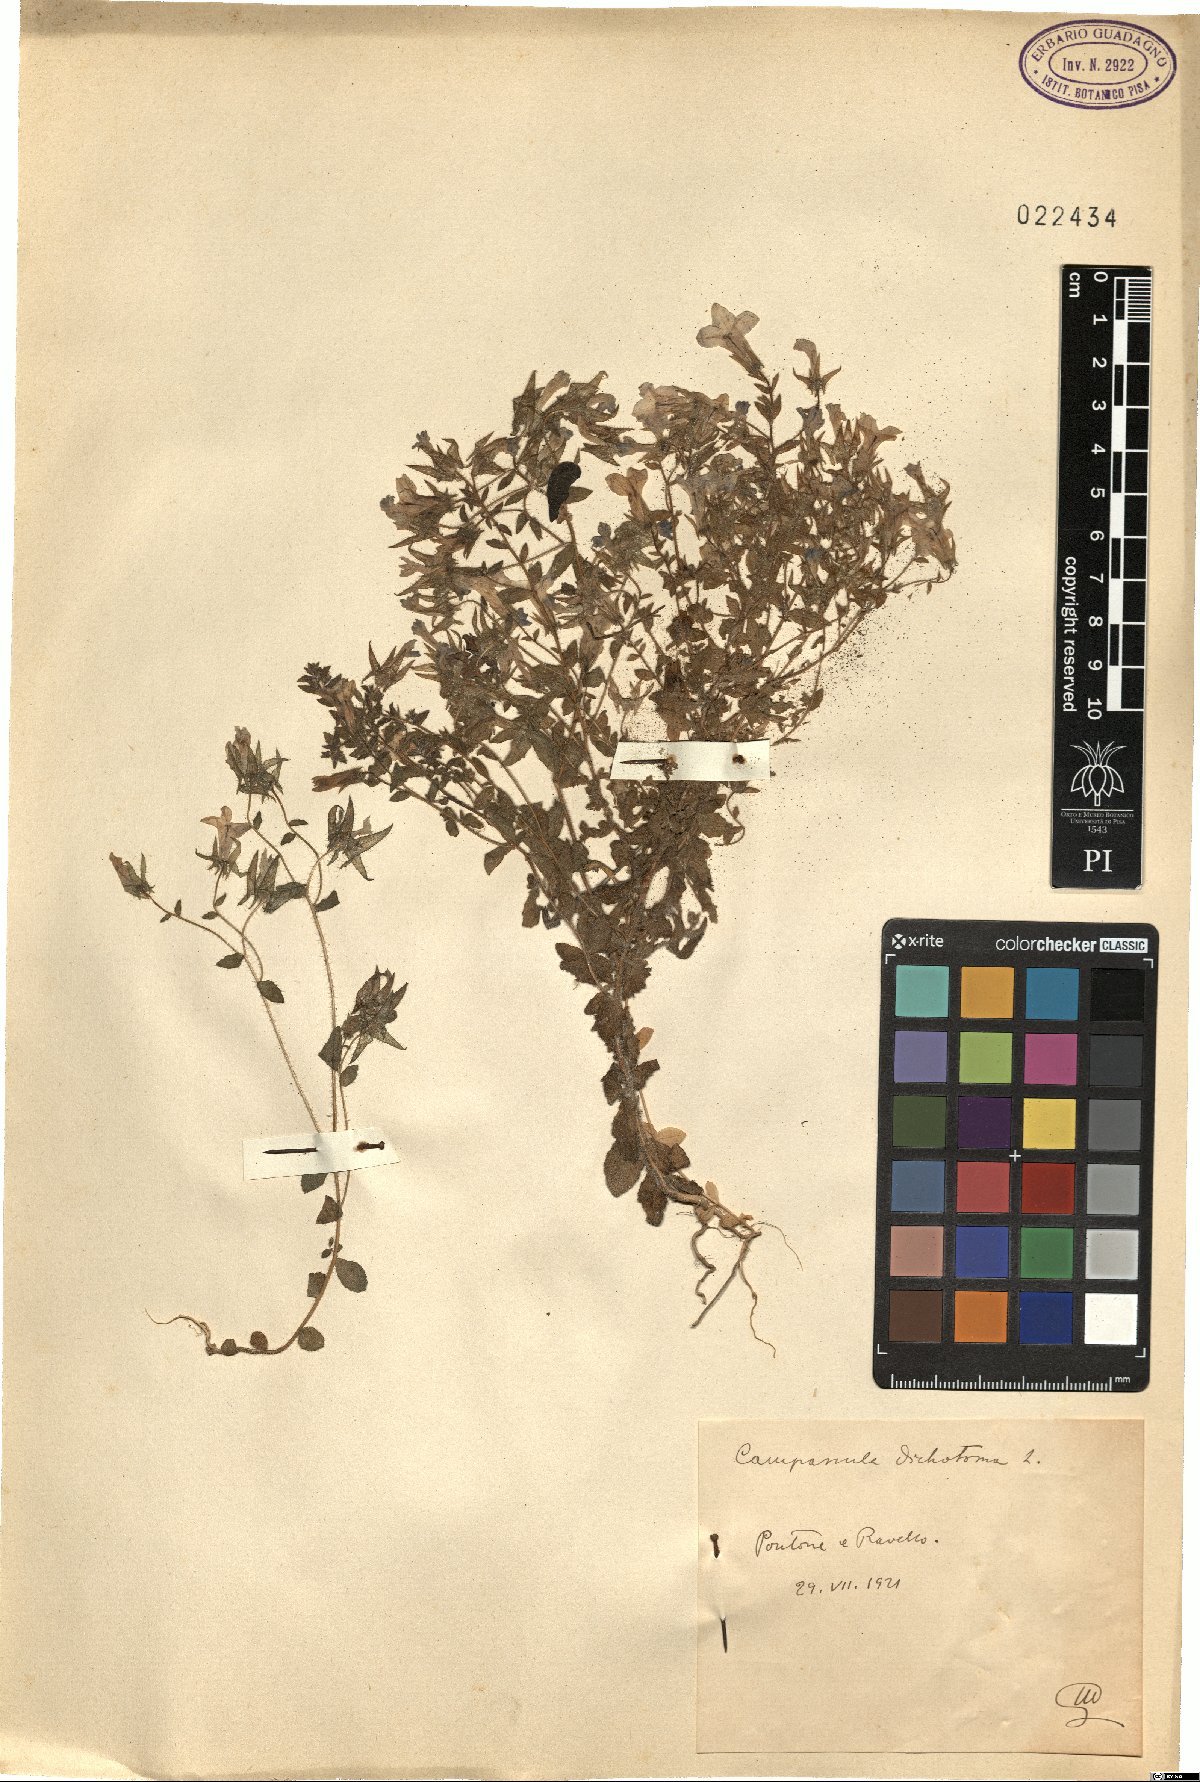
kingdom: Plantae
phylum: Tracheophyta
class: Magnoliopsida
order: Asterales
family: Campanulaceae
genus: Campanula
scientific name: Campanula dichotoma
